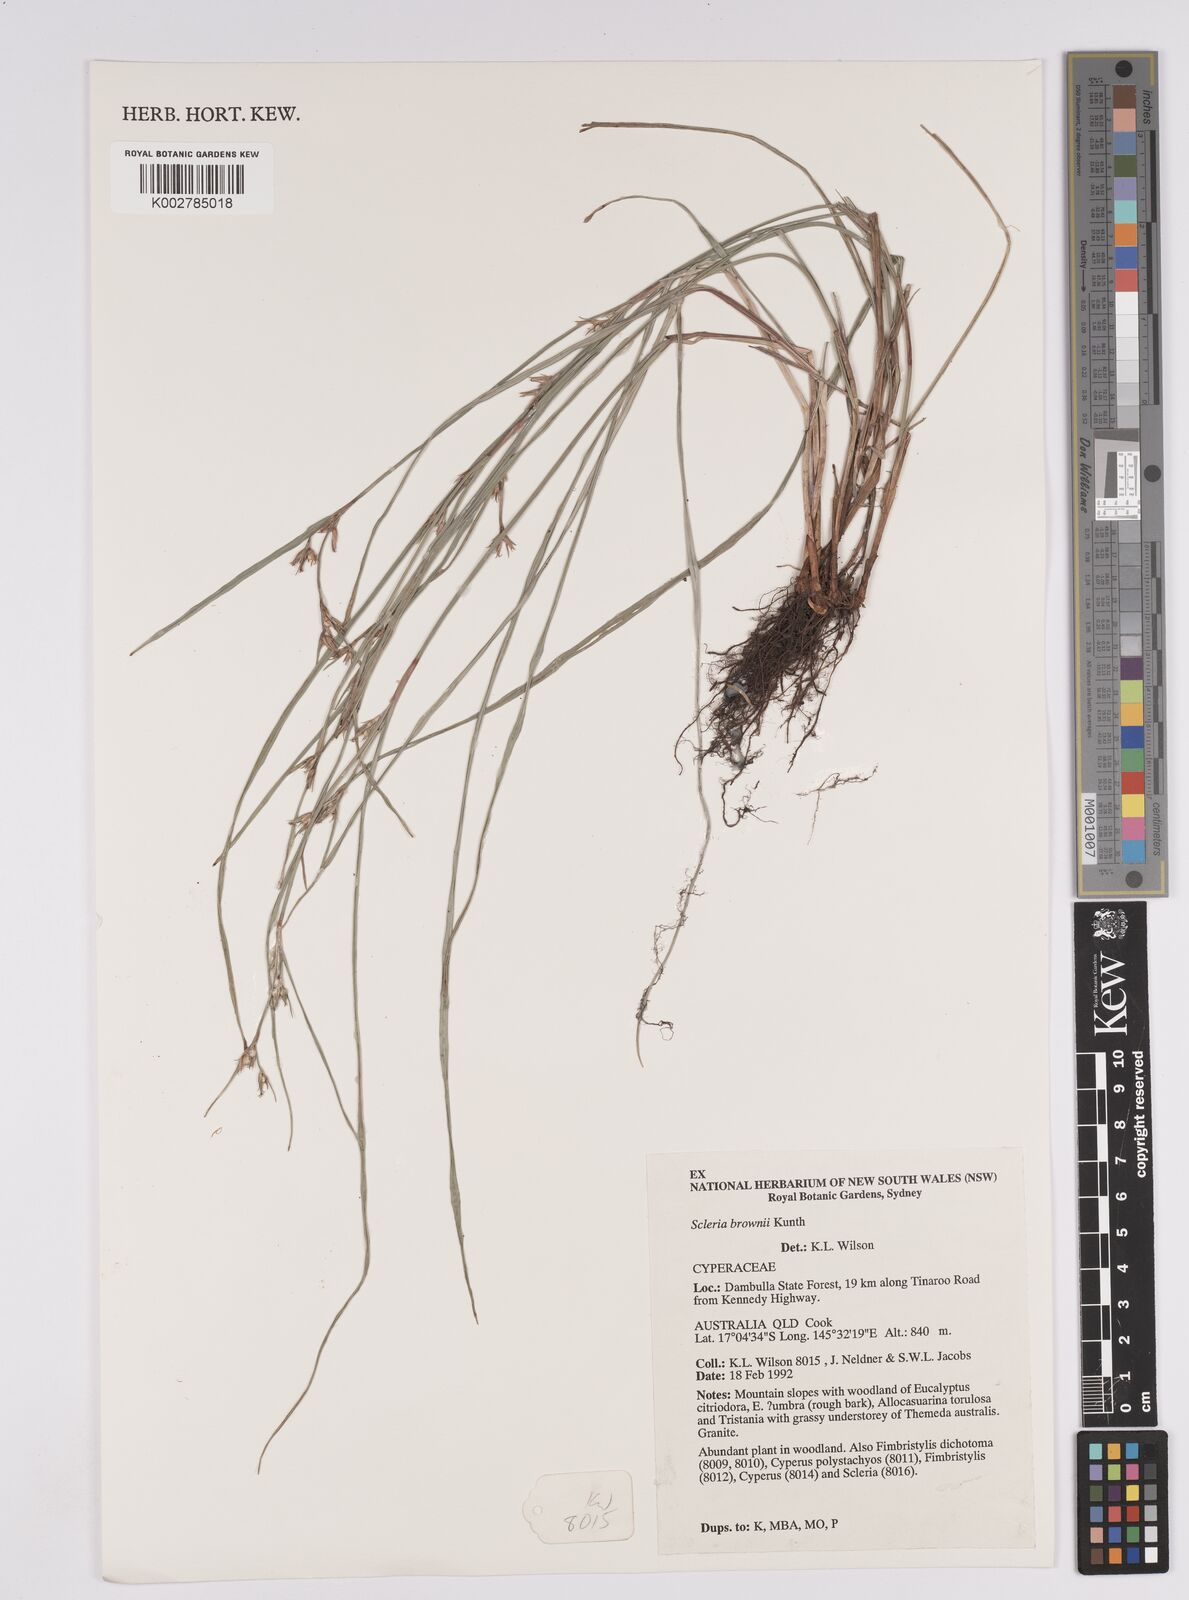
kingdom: Plantae
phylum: Tracheophyta
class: Liliopsida
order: Poales
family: Cyperaceae
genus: Scleria
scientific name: Scleria brownii
